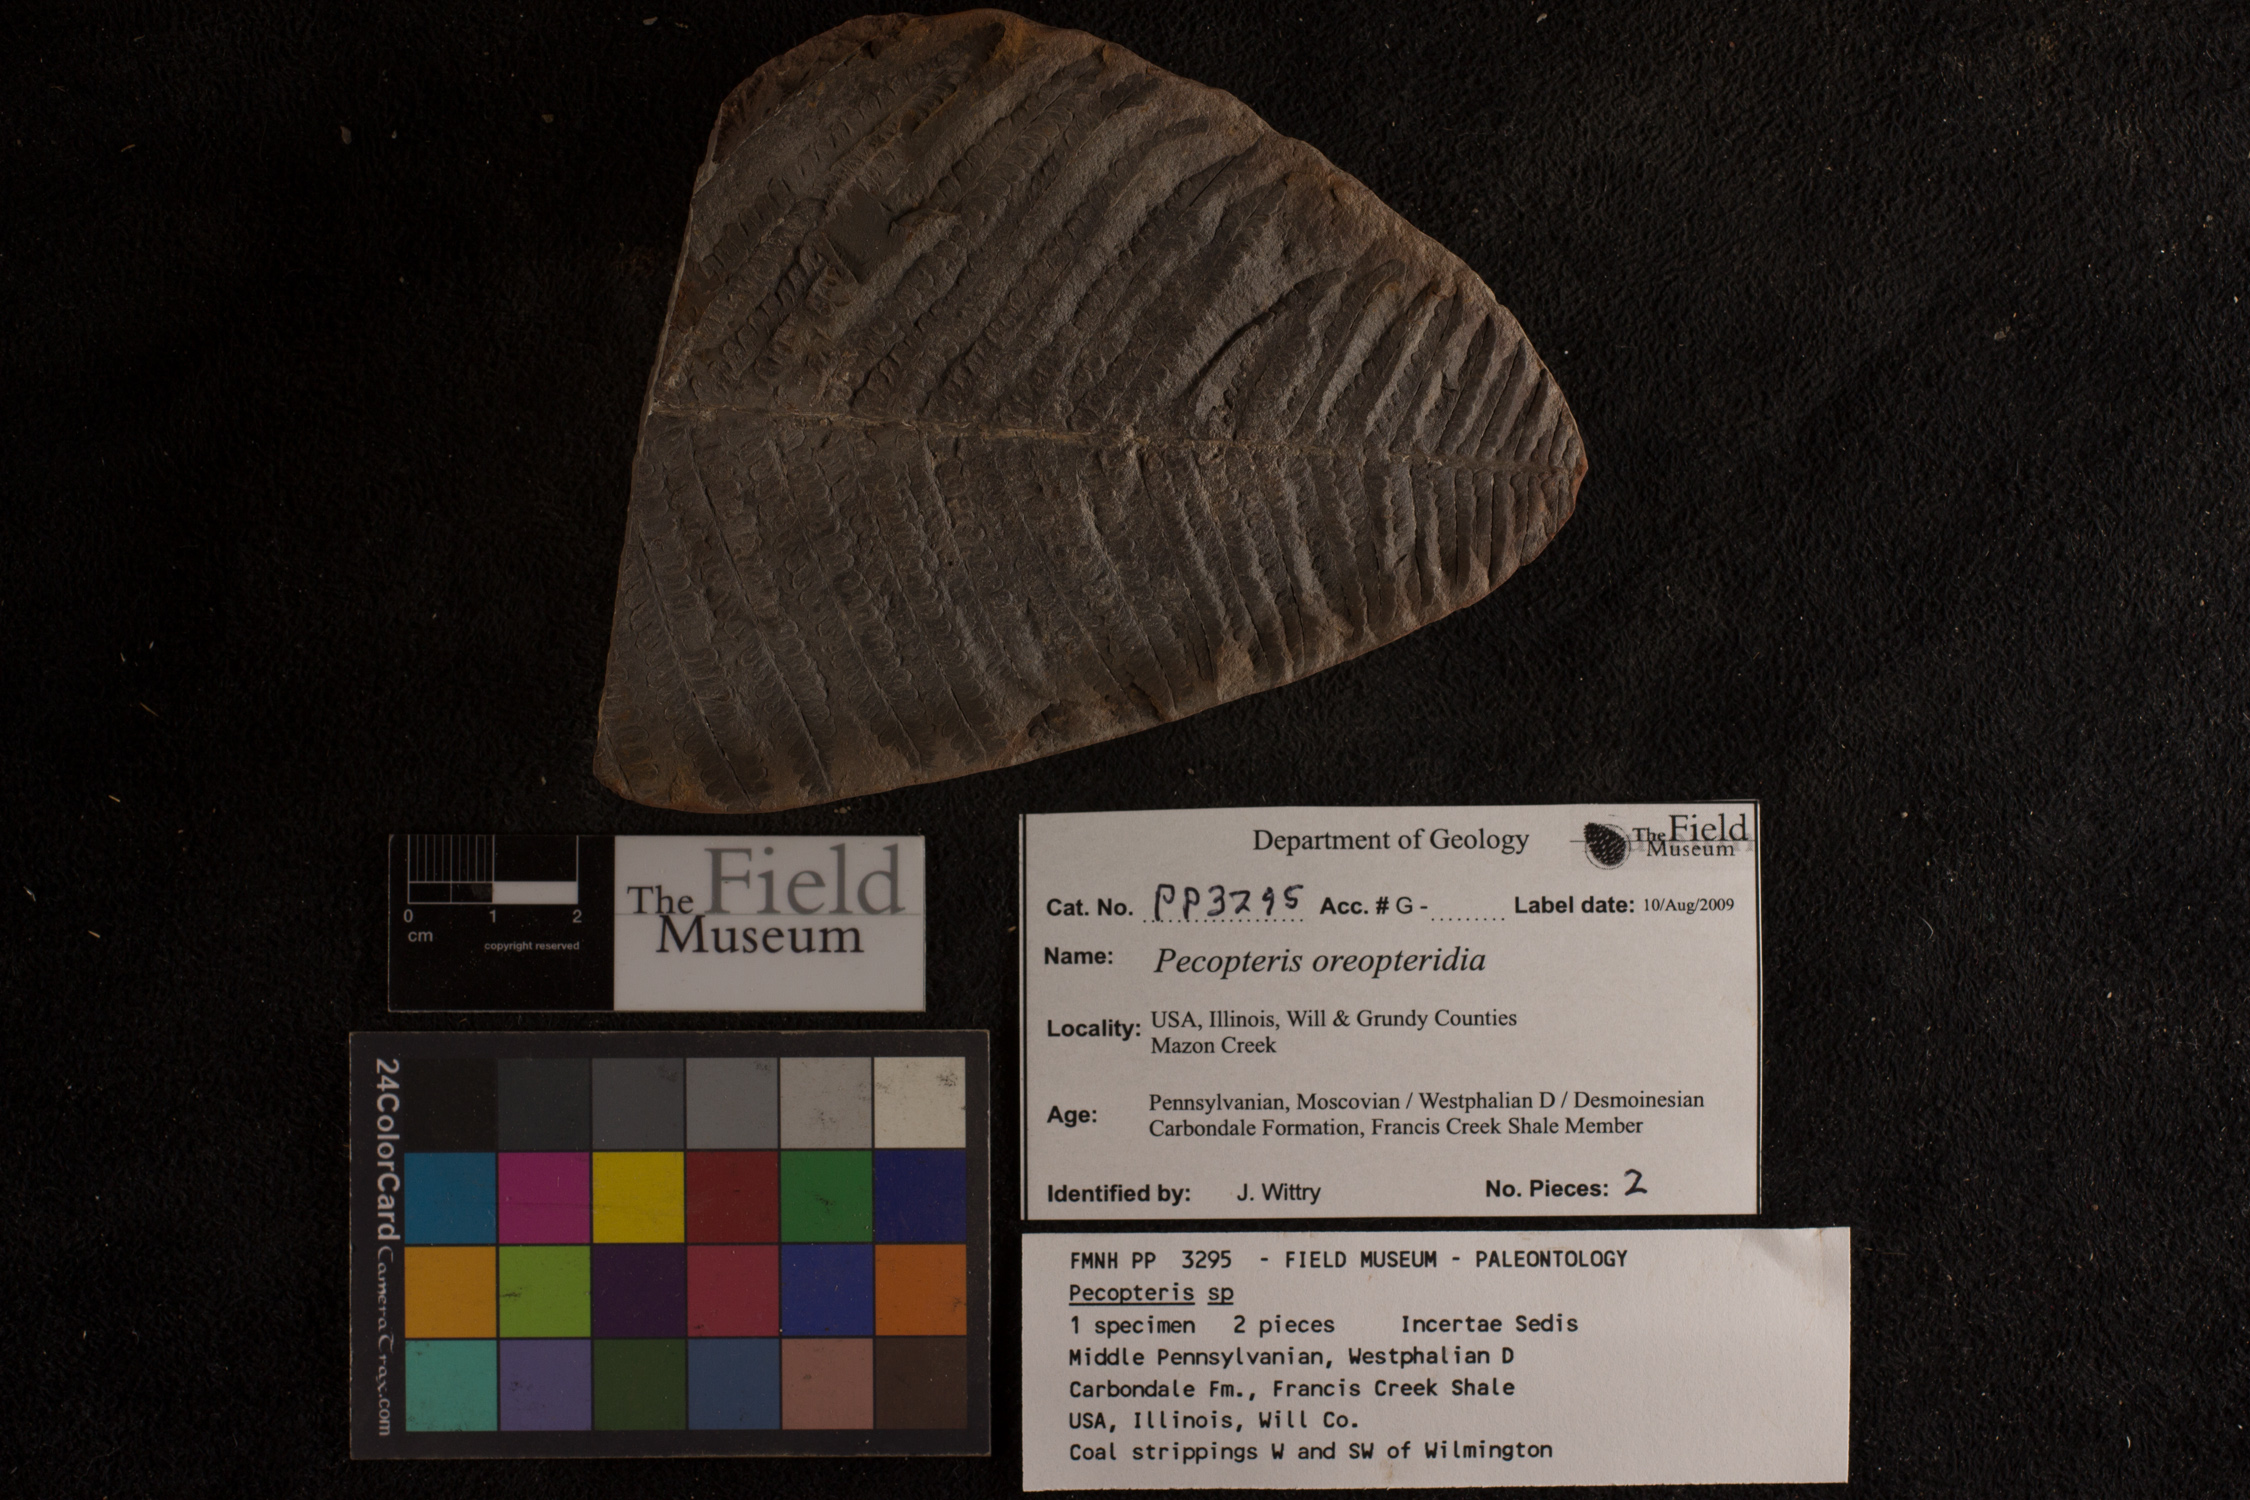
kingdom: Plantae
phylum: Tracheophyta
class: Polypodiopsida
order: Marattiales
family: Asterothecaceae
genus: Pecopteris
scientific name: Pecopteris
